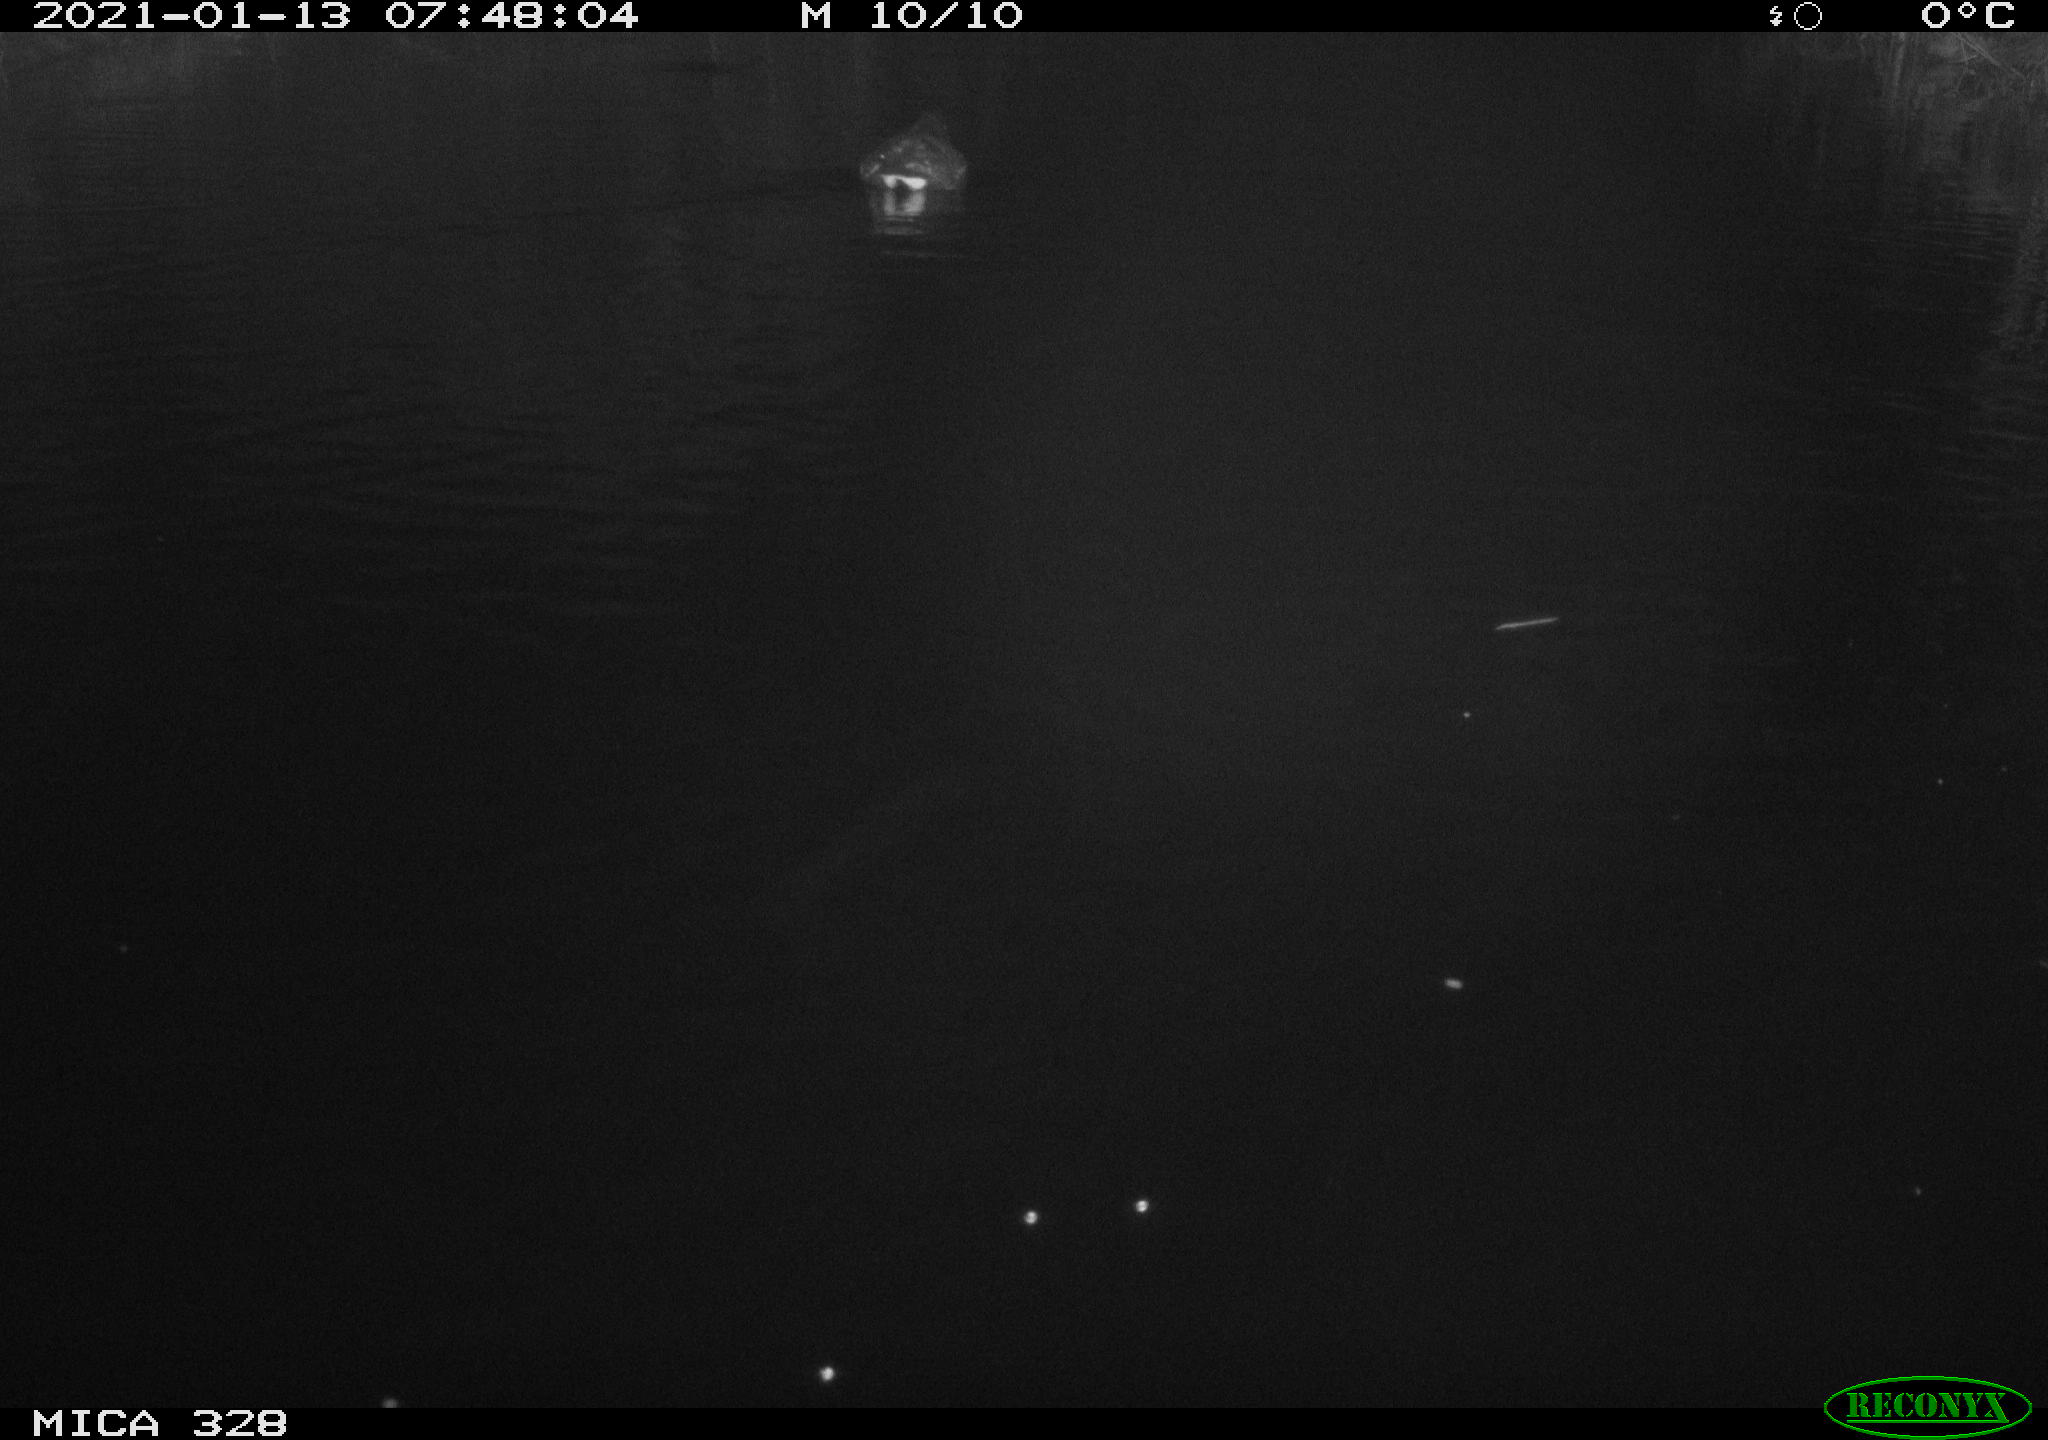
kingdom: Animalia
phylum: Chordata
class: Aves
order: Gruiformes
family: Rallidae
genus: Gallinula
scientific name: Gallinula chloropus
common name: Common moorhen
